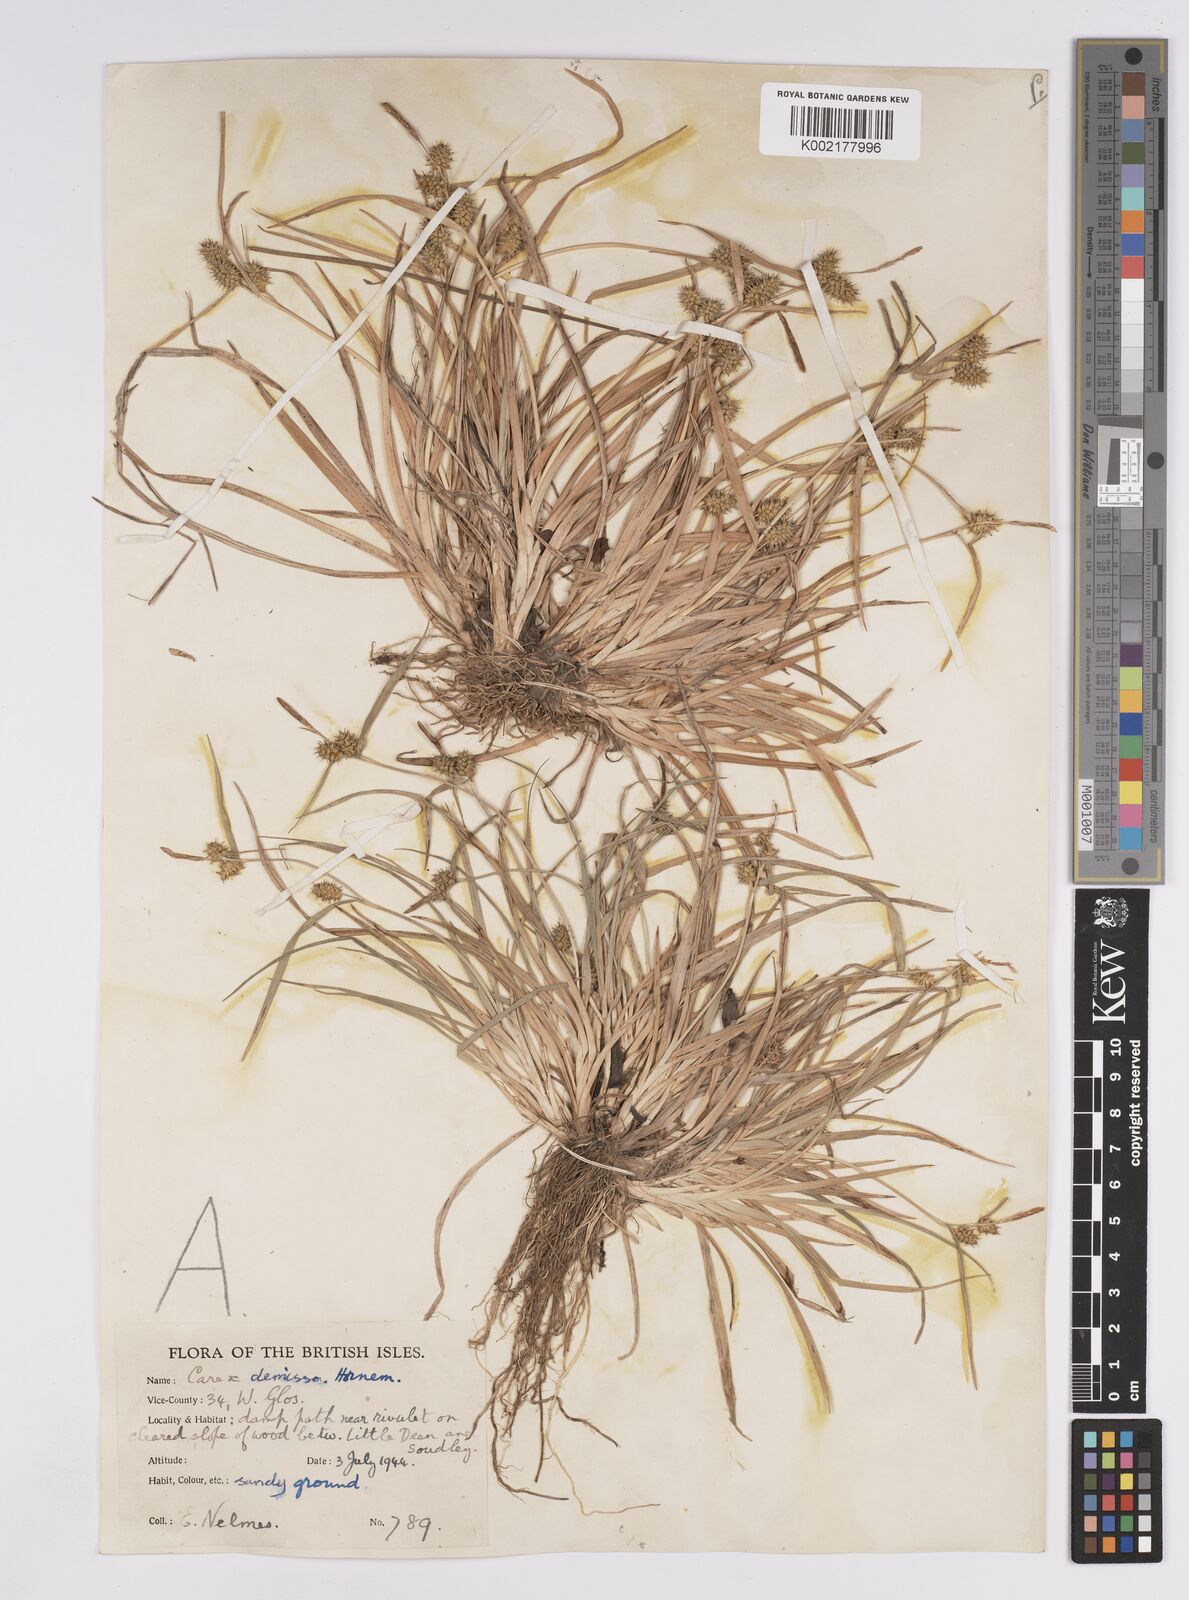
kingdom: Plantae
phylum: Tracheophyta
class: Liliopsida
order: Poales
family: Cyperaceae
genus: Carex
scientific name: Carex demissa
